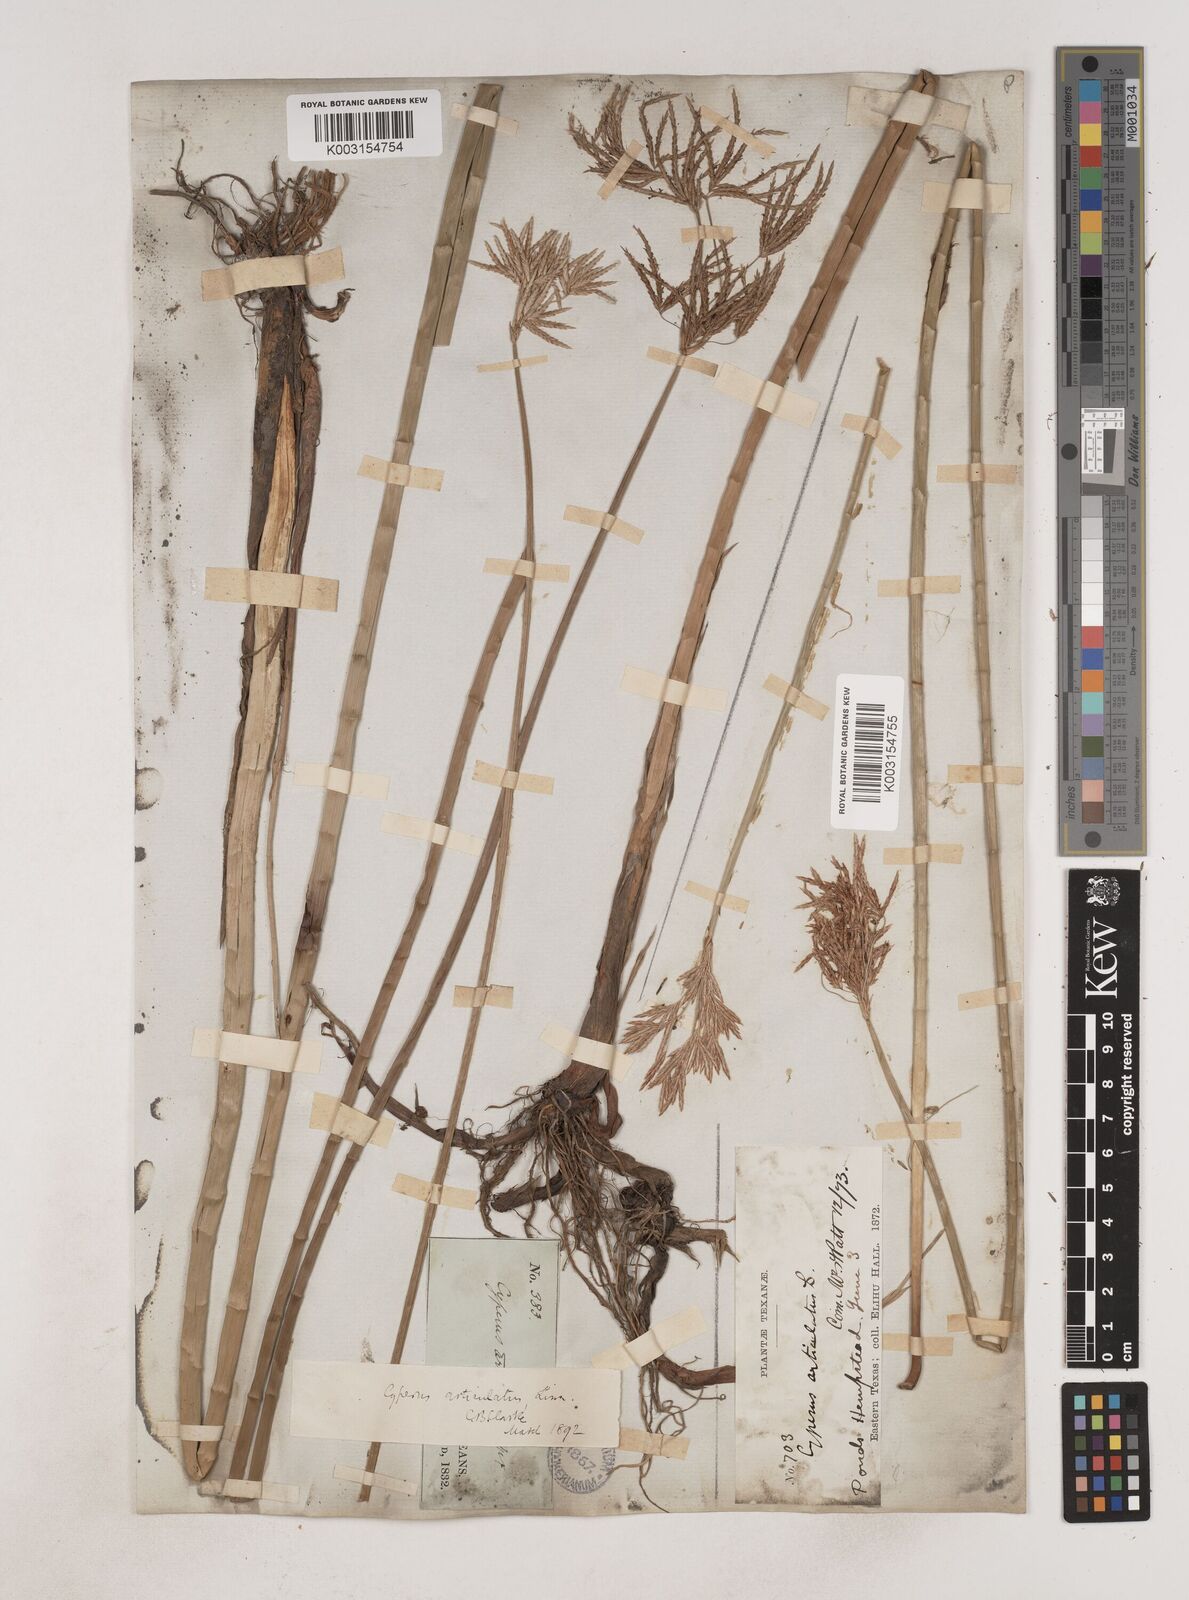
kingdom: Plantae
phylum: Tracheophyta
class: Liliopsida
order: Poales
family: Cyperaceae
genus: Cyperus
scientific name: Cyperus articulatus
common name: Jointed flatsedge
